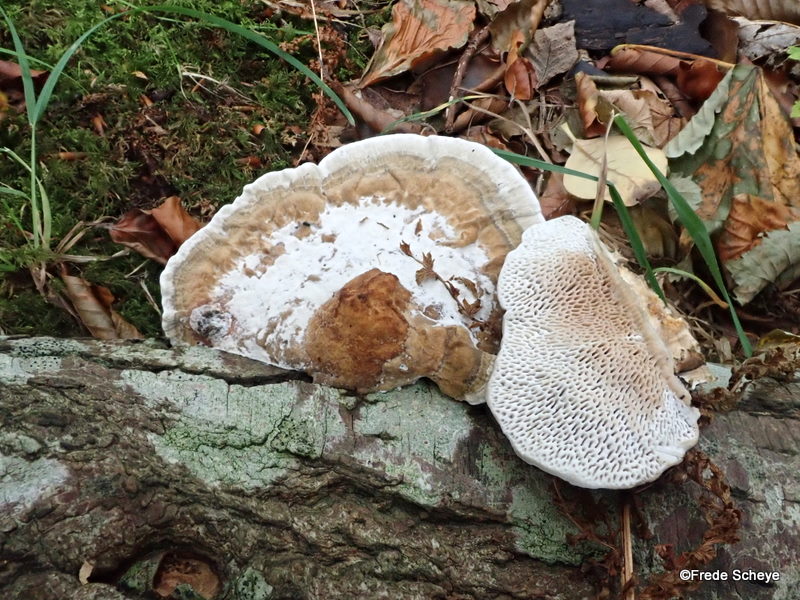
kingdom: Fungi
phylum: Basidiomycota
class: Agaricomycetes
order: Polyporales
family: Polyporaceae
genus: Daedaleopsis
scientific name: Daedaleopsis confragosa
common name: rødmende læderporesvamp
